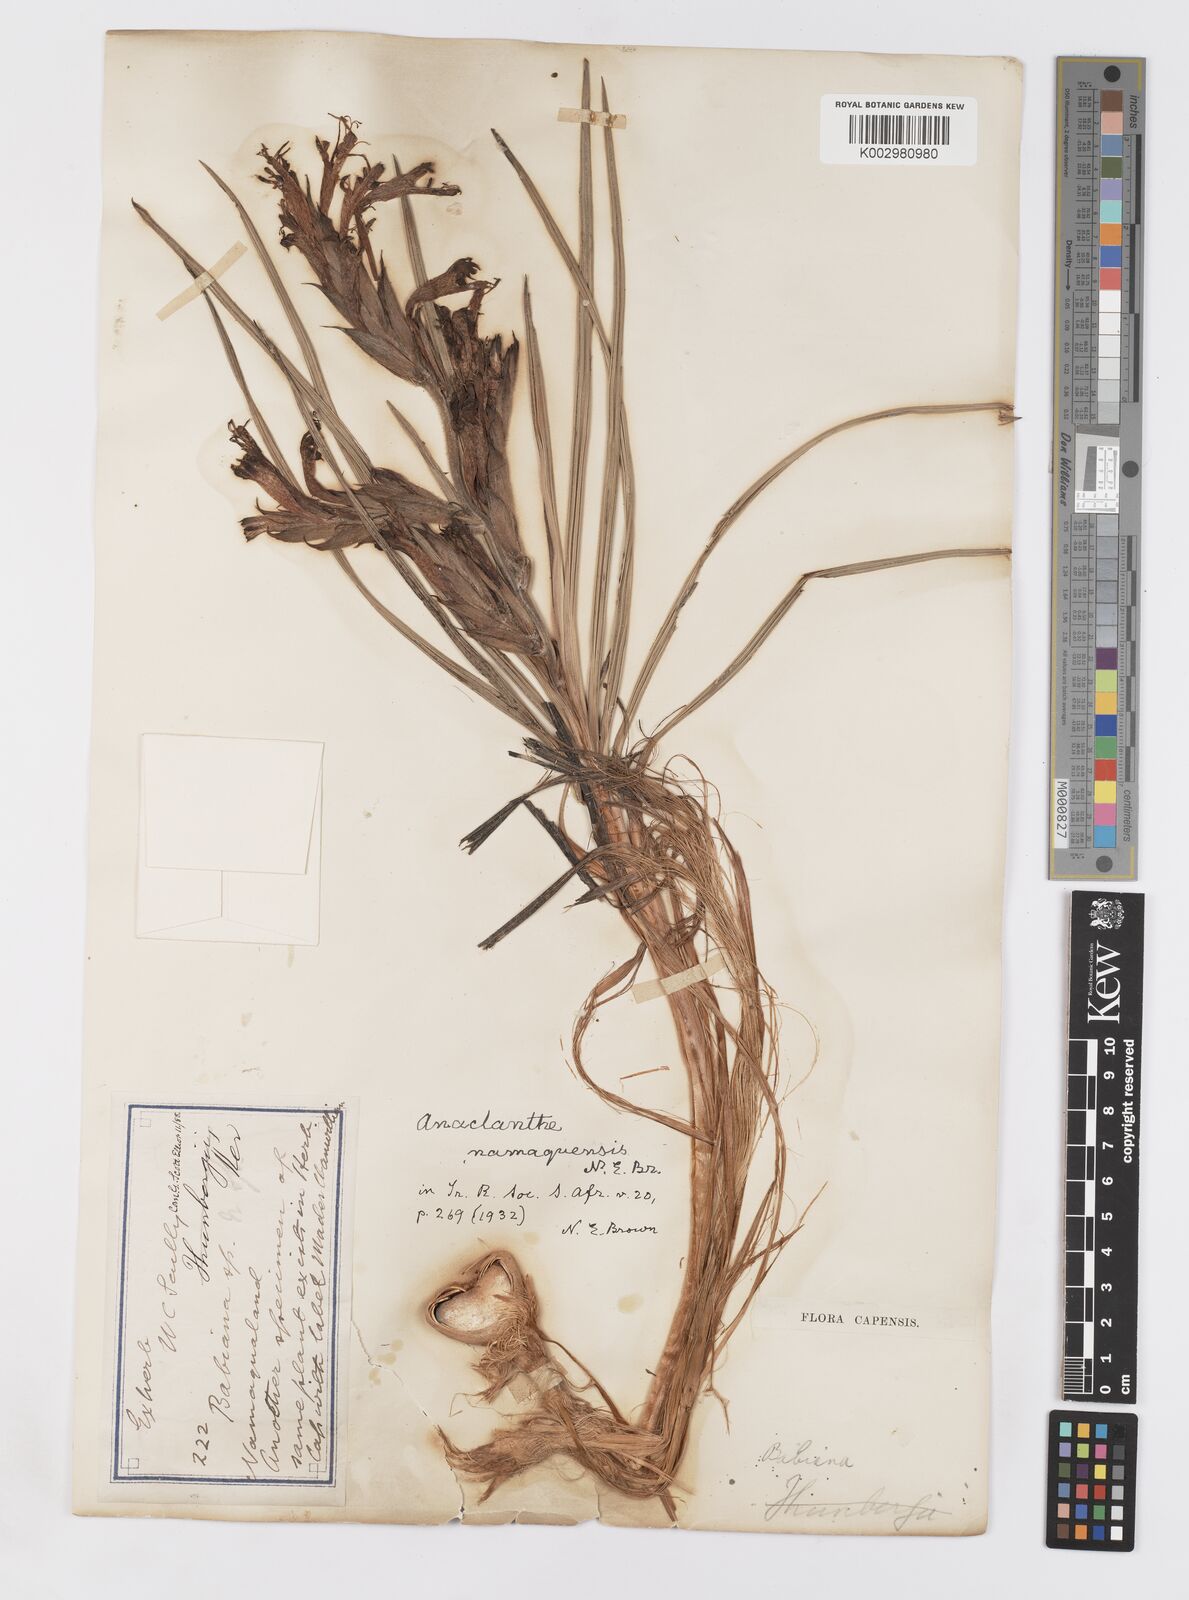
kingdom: Plantae
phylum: Tracheophyta
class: Liliopsida
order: Asparagales
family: Iridaceae
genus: Babiana
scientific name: Babiana
